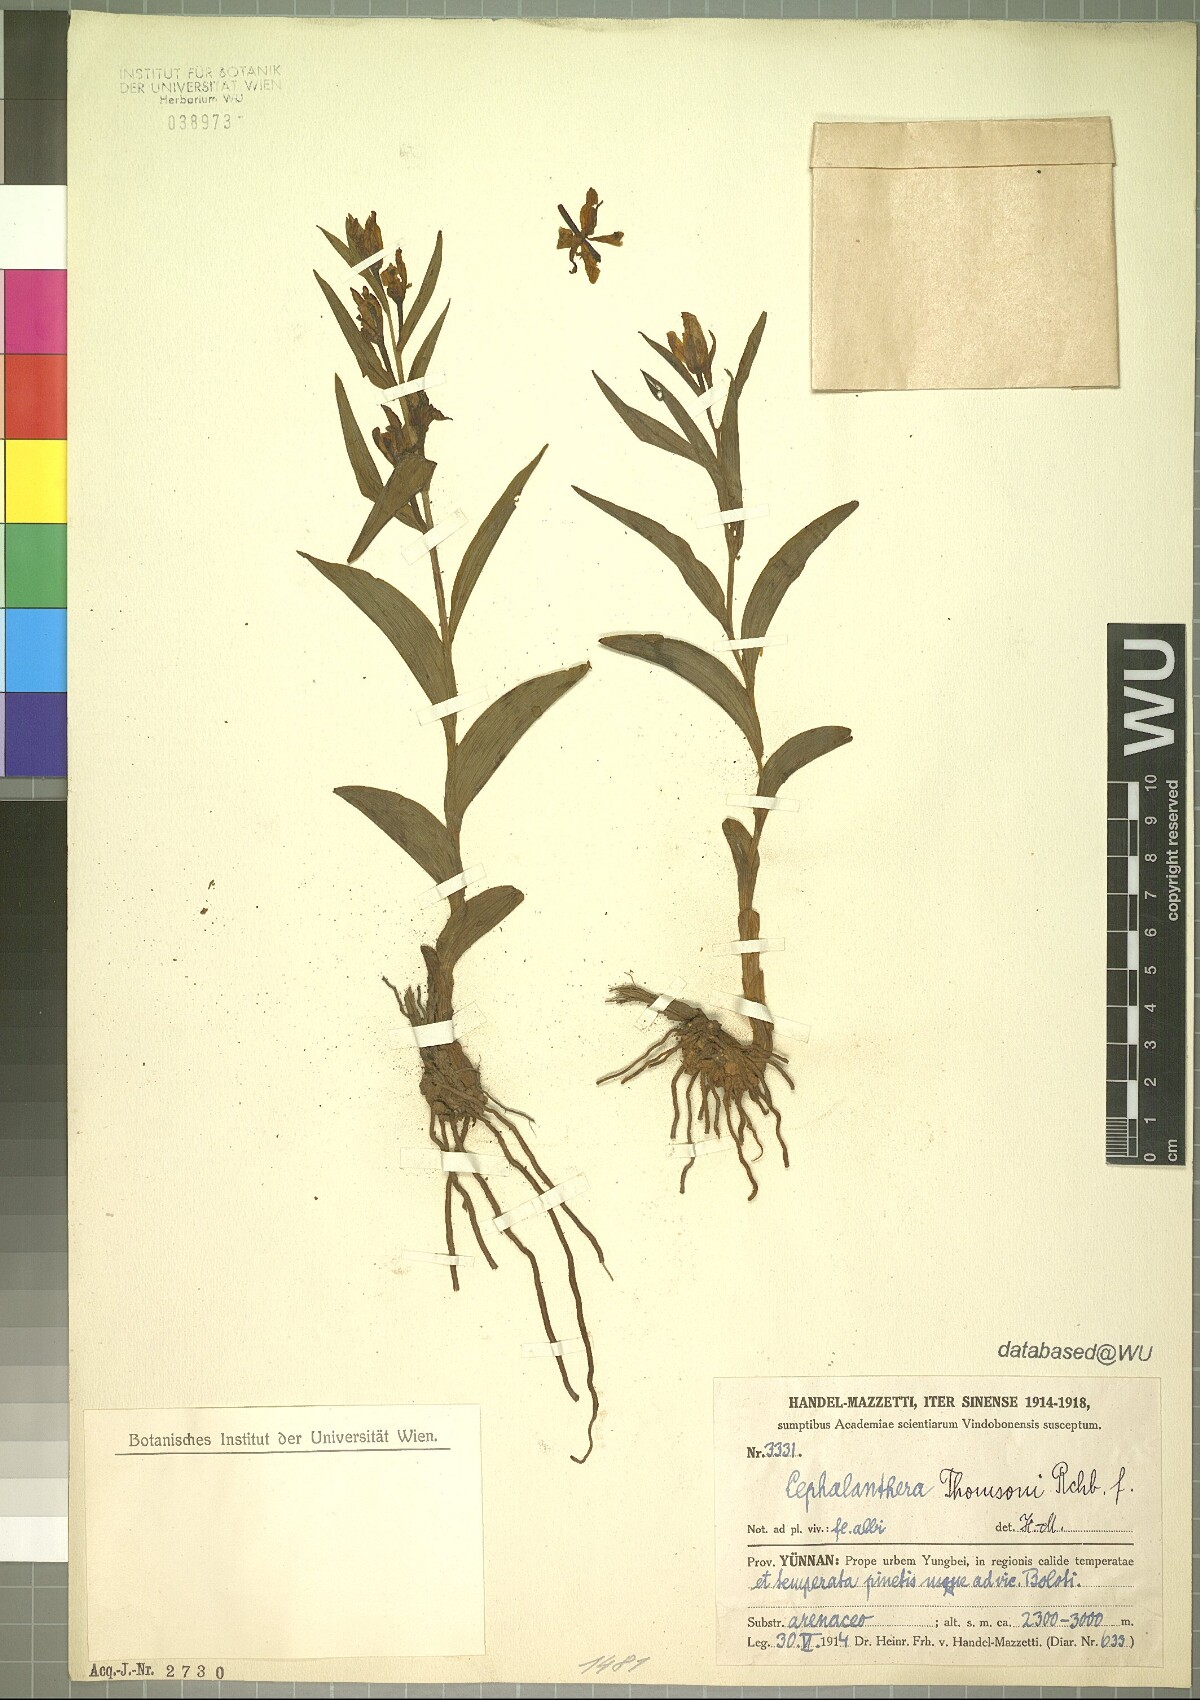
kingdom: Plantae
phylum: Tracheophyta
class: Liliopsida
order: Asparagales
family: Orchidaceae
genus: Cephalanthera
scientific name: Cephalanthera longifolia
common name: Narrow-leaved helleborine
